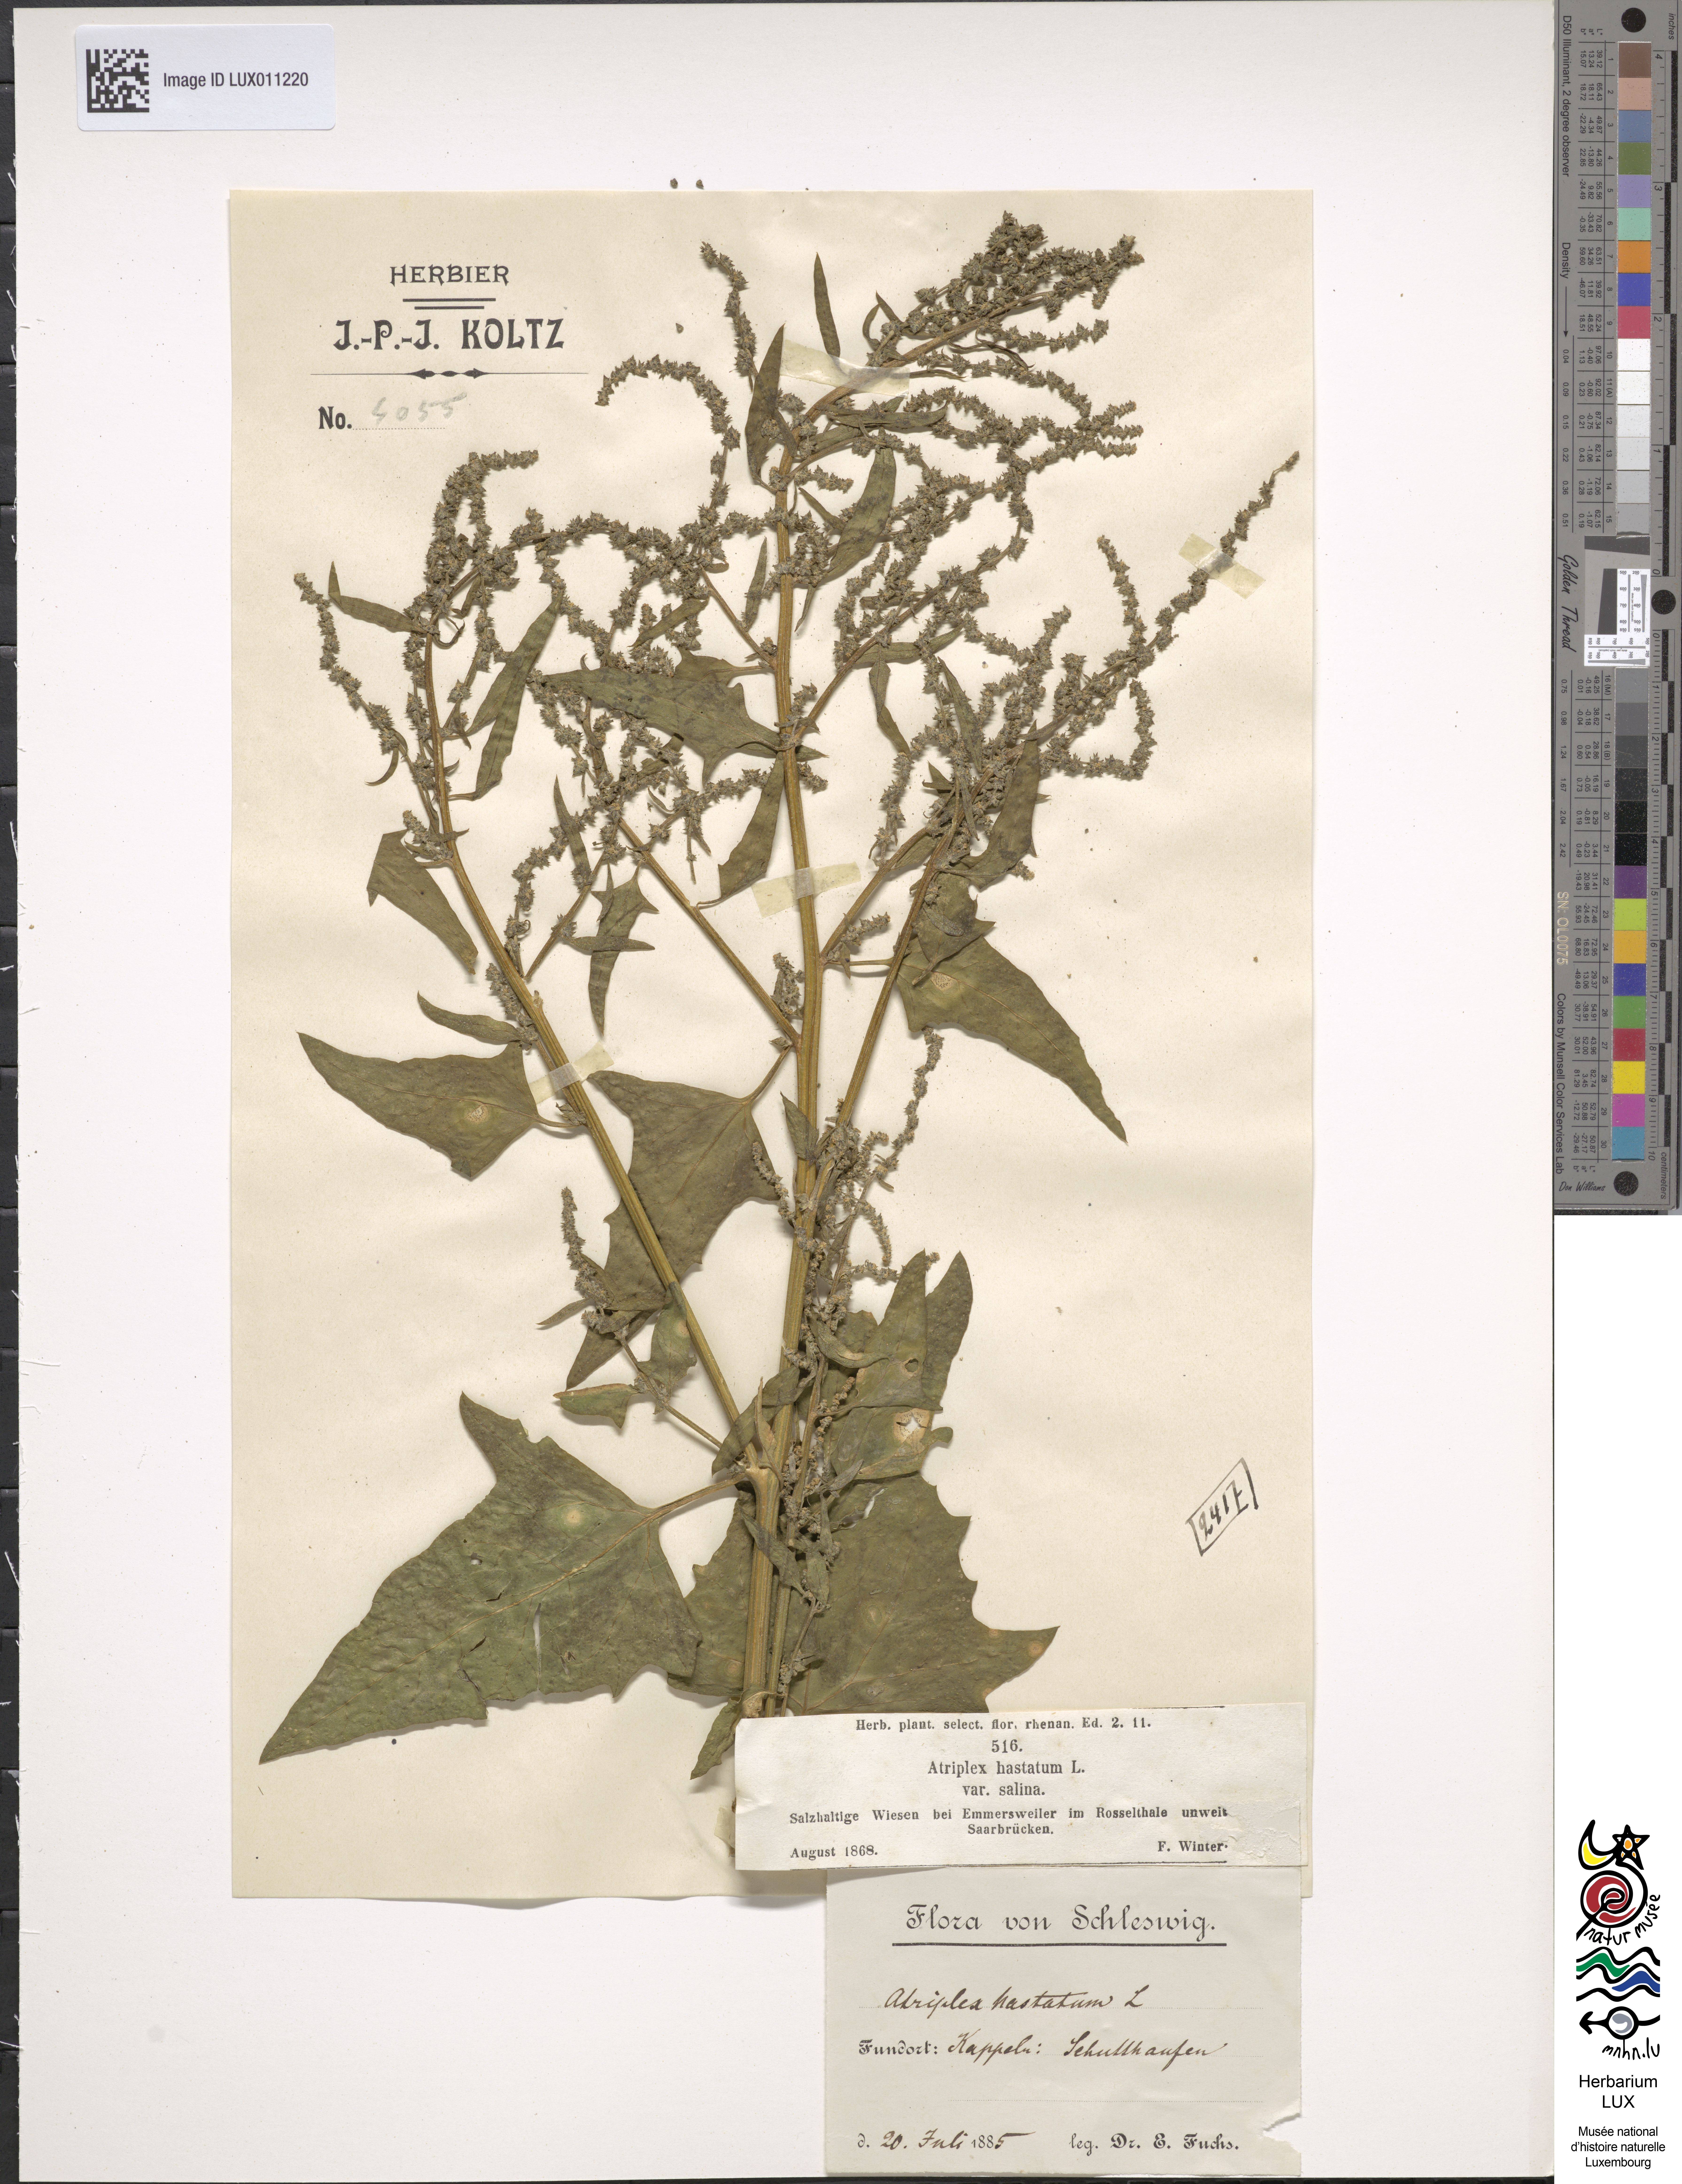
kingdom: Plantae
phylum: Tracheophyta
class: Magnoliopsida
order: Caryophyllales
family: Amaranthaceae
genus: Atriplex
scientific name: Atriplex calotheca
